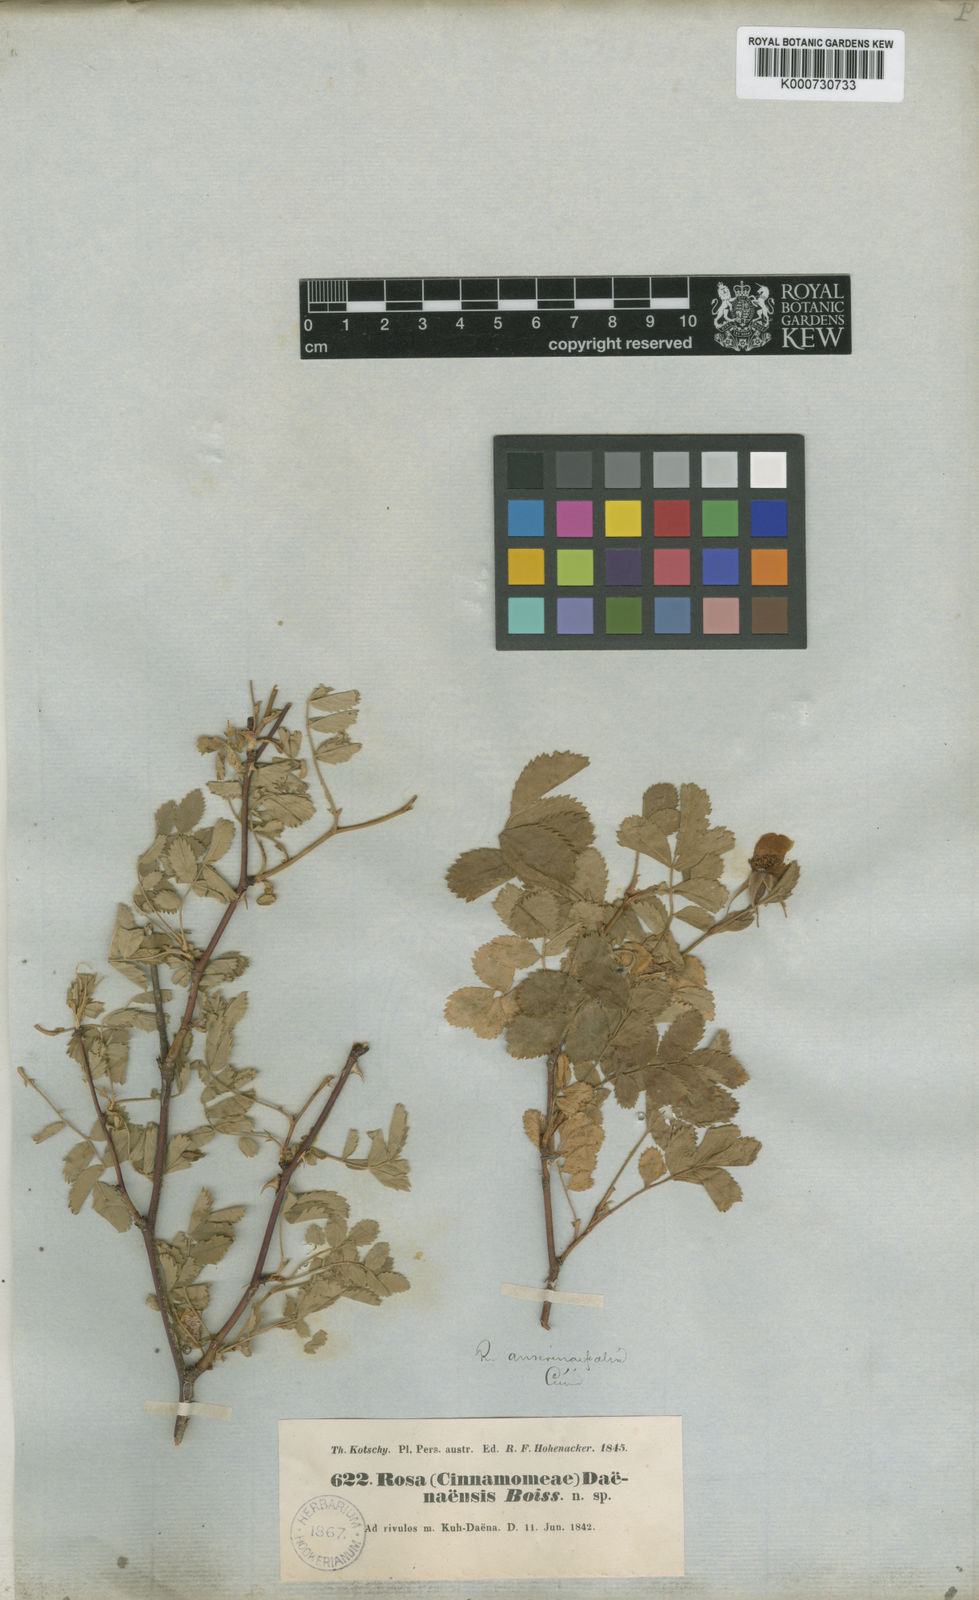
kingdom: Plantae
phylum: Tracheophyta
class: Magnoliopsida
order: Rosales
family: Rosaceae
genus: Rosa
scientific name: Rosa
